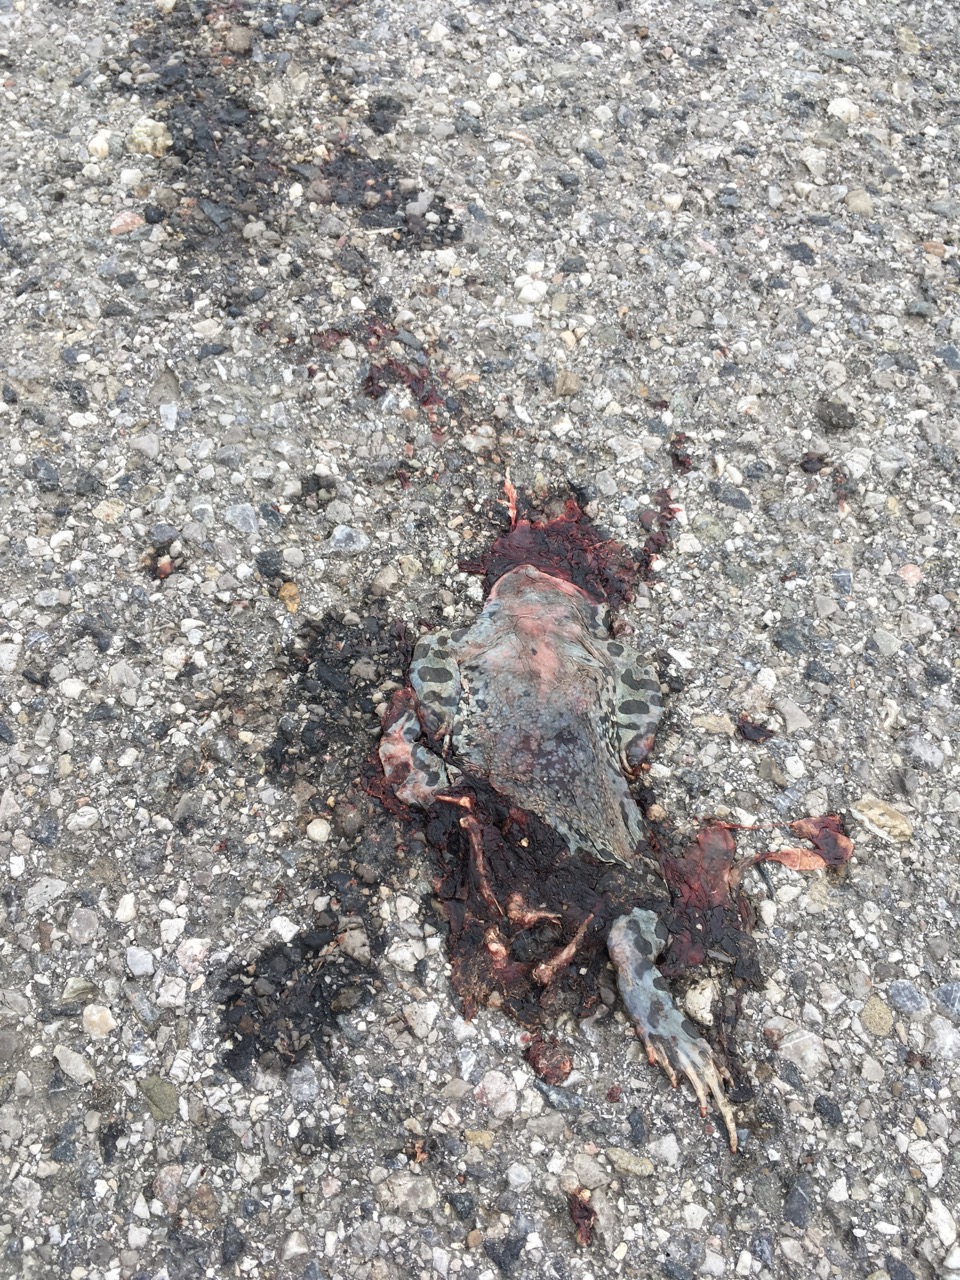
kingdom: Animalia
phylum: Chordata
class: Amphibia
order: Anura
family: Bufonidae
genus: Bufotes
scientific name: Bufotes viridis
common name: European green toad
